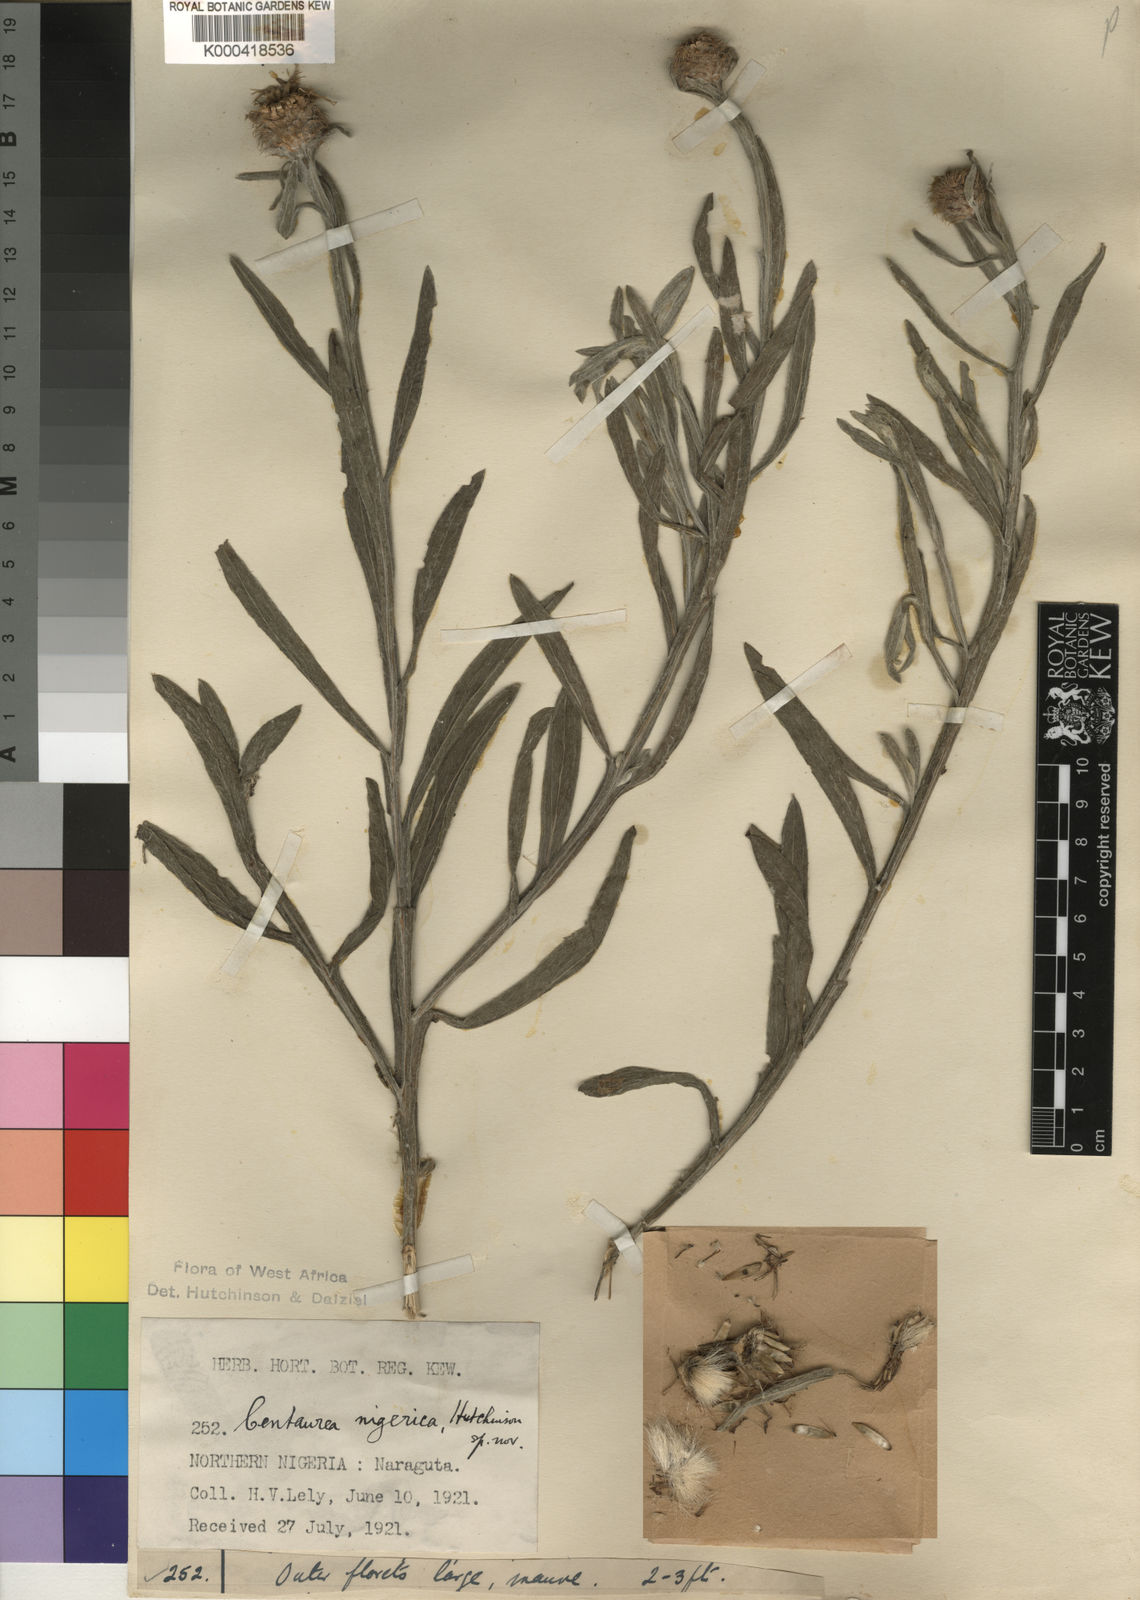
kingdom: Plantae
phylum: Tracheophyta
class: Magnoliopsida
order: Asterales
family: Asteraceae
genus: Centaurea
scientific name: Centaurea nigerica
